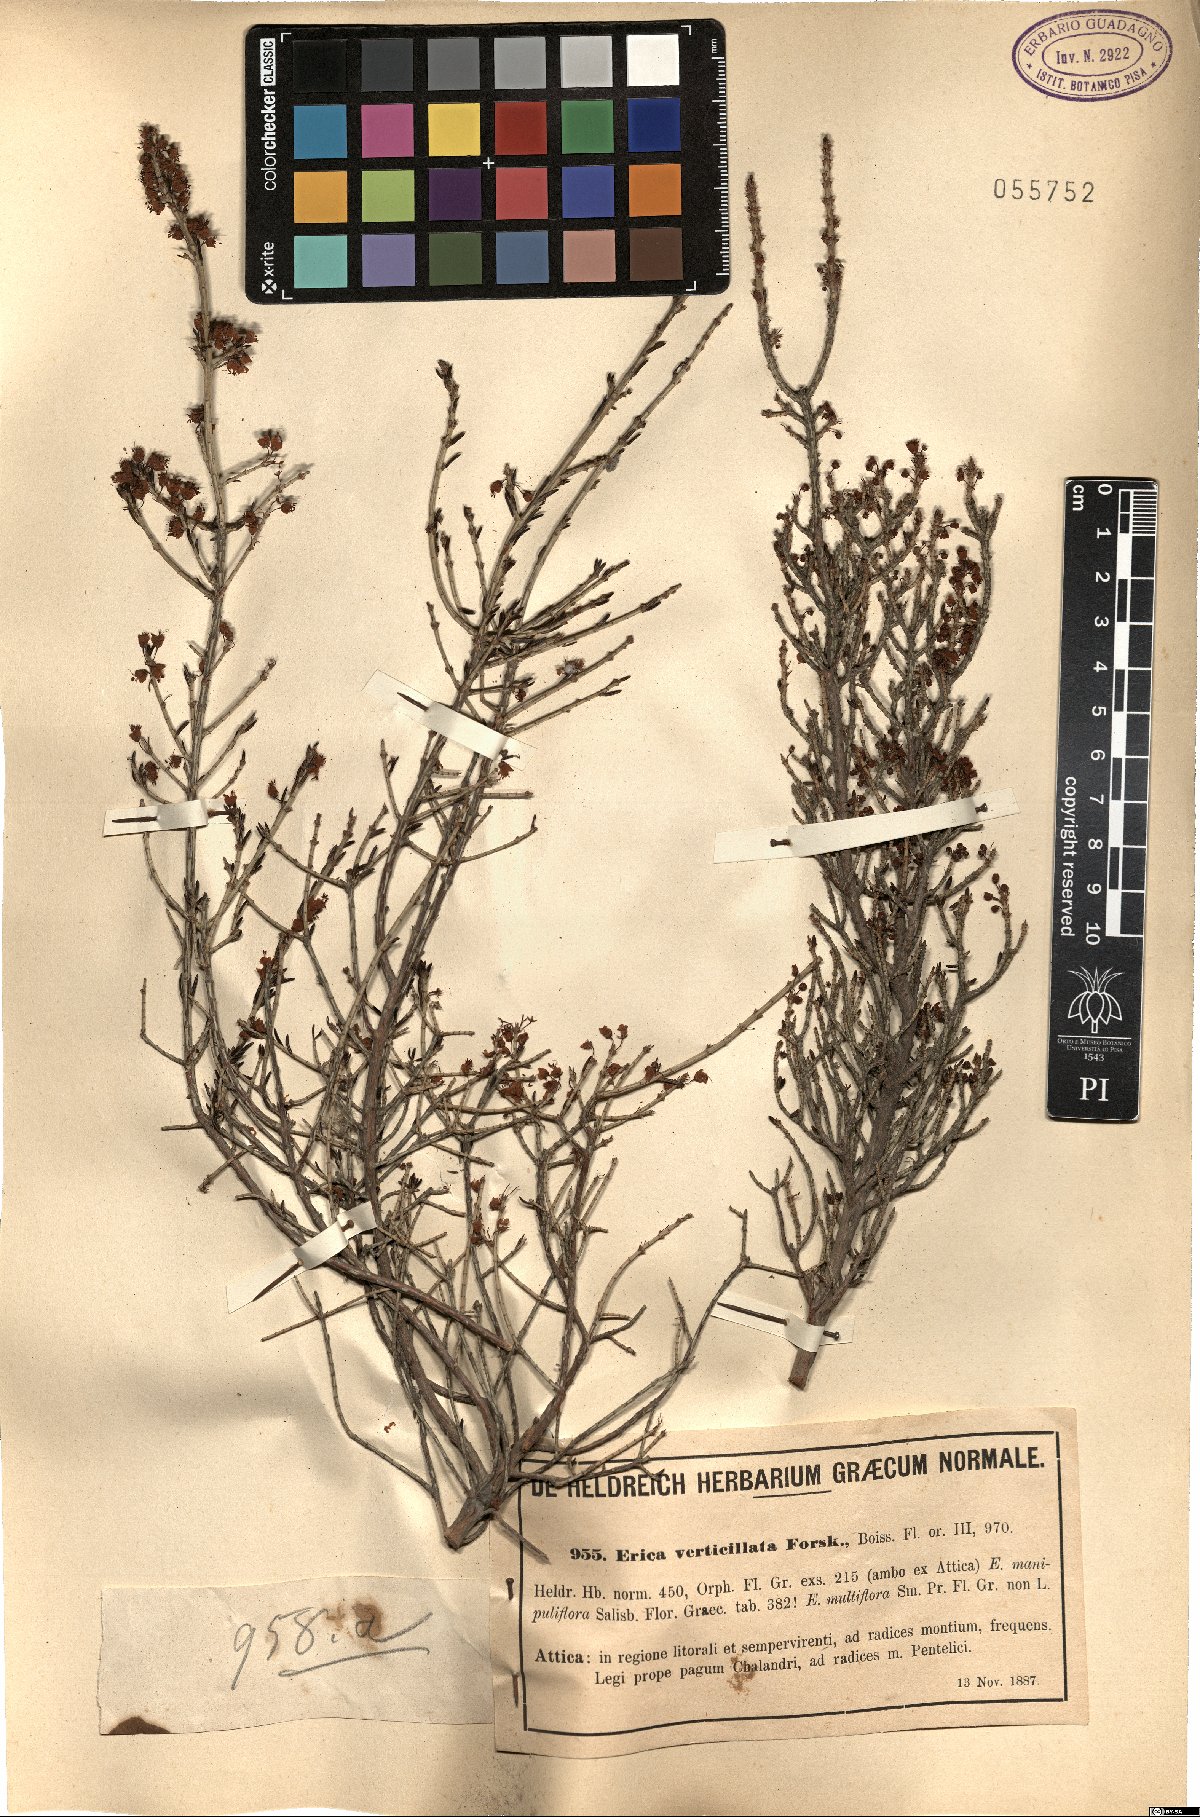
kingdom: Plantae
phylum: Tracheophyta
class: Magnoliopsida
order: Ericales
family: Ericaceae
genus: Erica
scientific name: Erica verticillata
